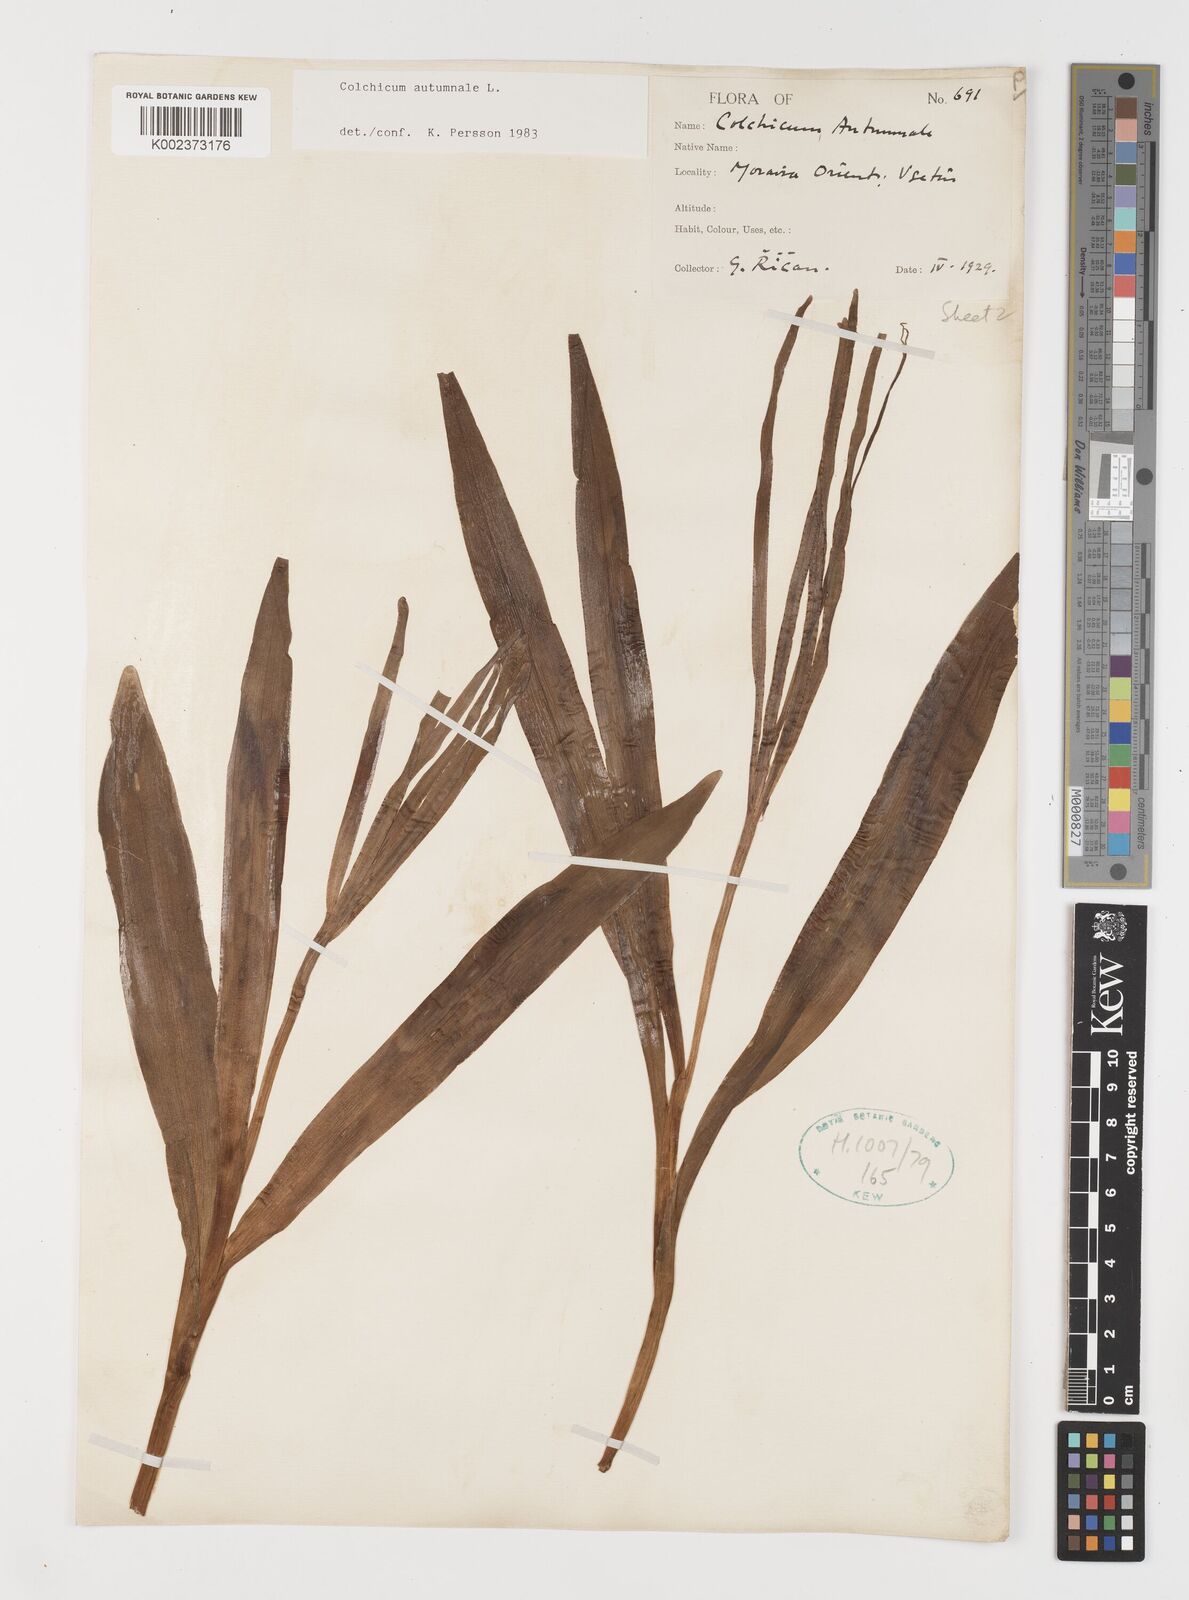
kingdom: Plantae
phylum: Tracheophyta
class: Liliopsida
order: Liliales
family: Colchicaceae
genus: Colchicum
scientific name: Colchicum autumnale
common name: Autumn crocus
